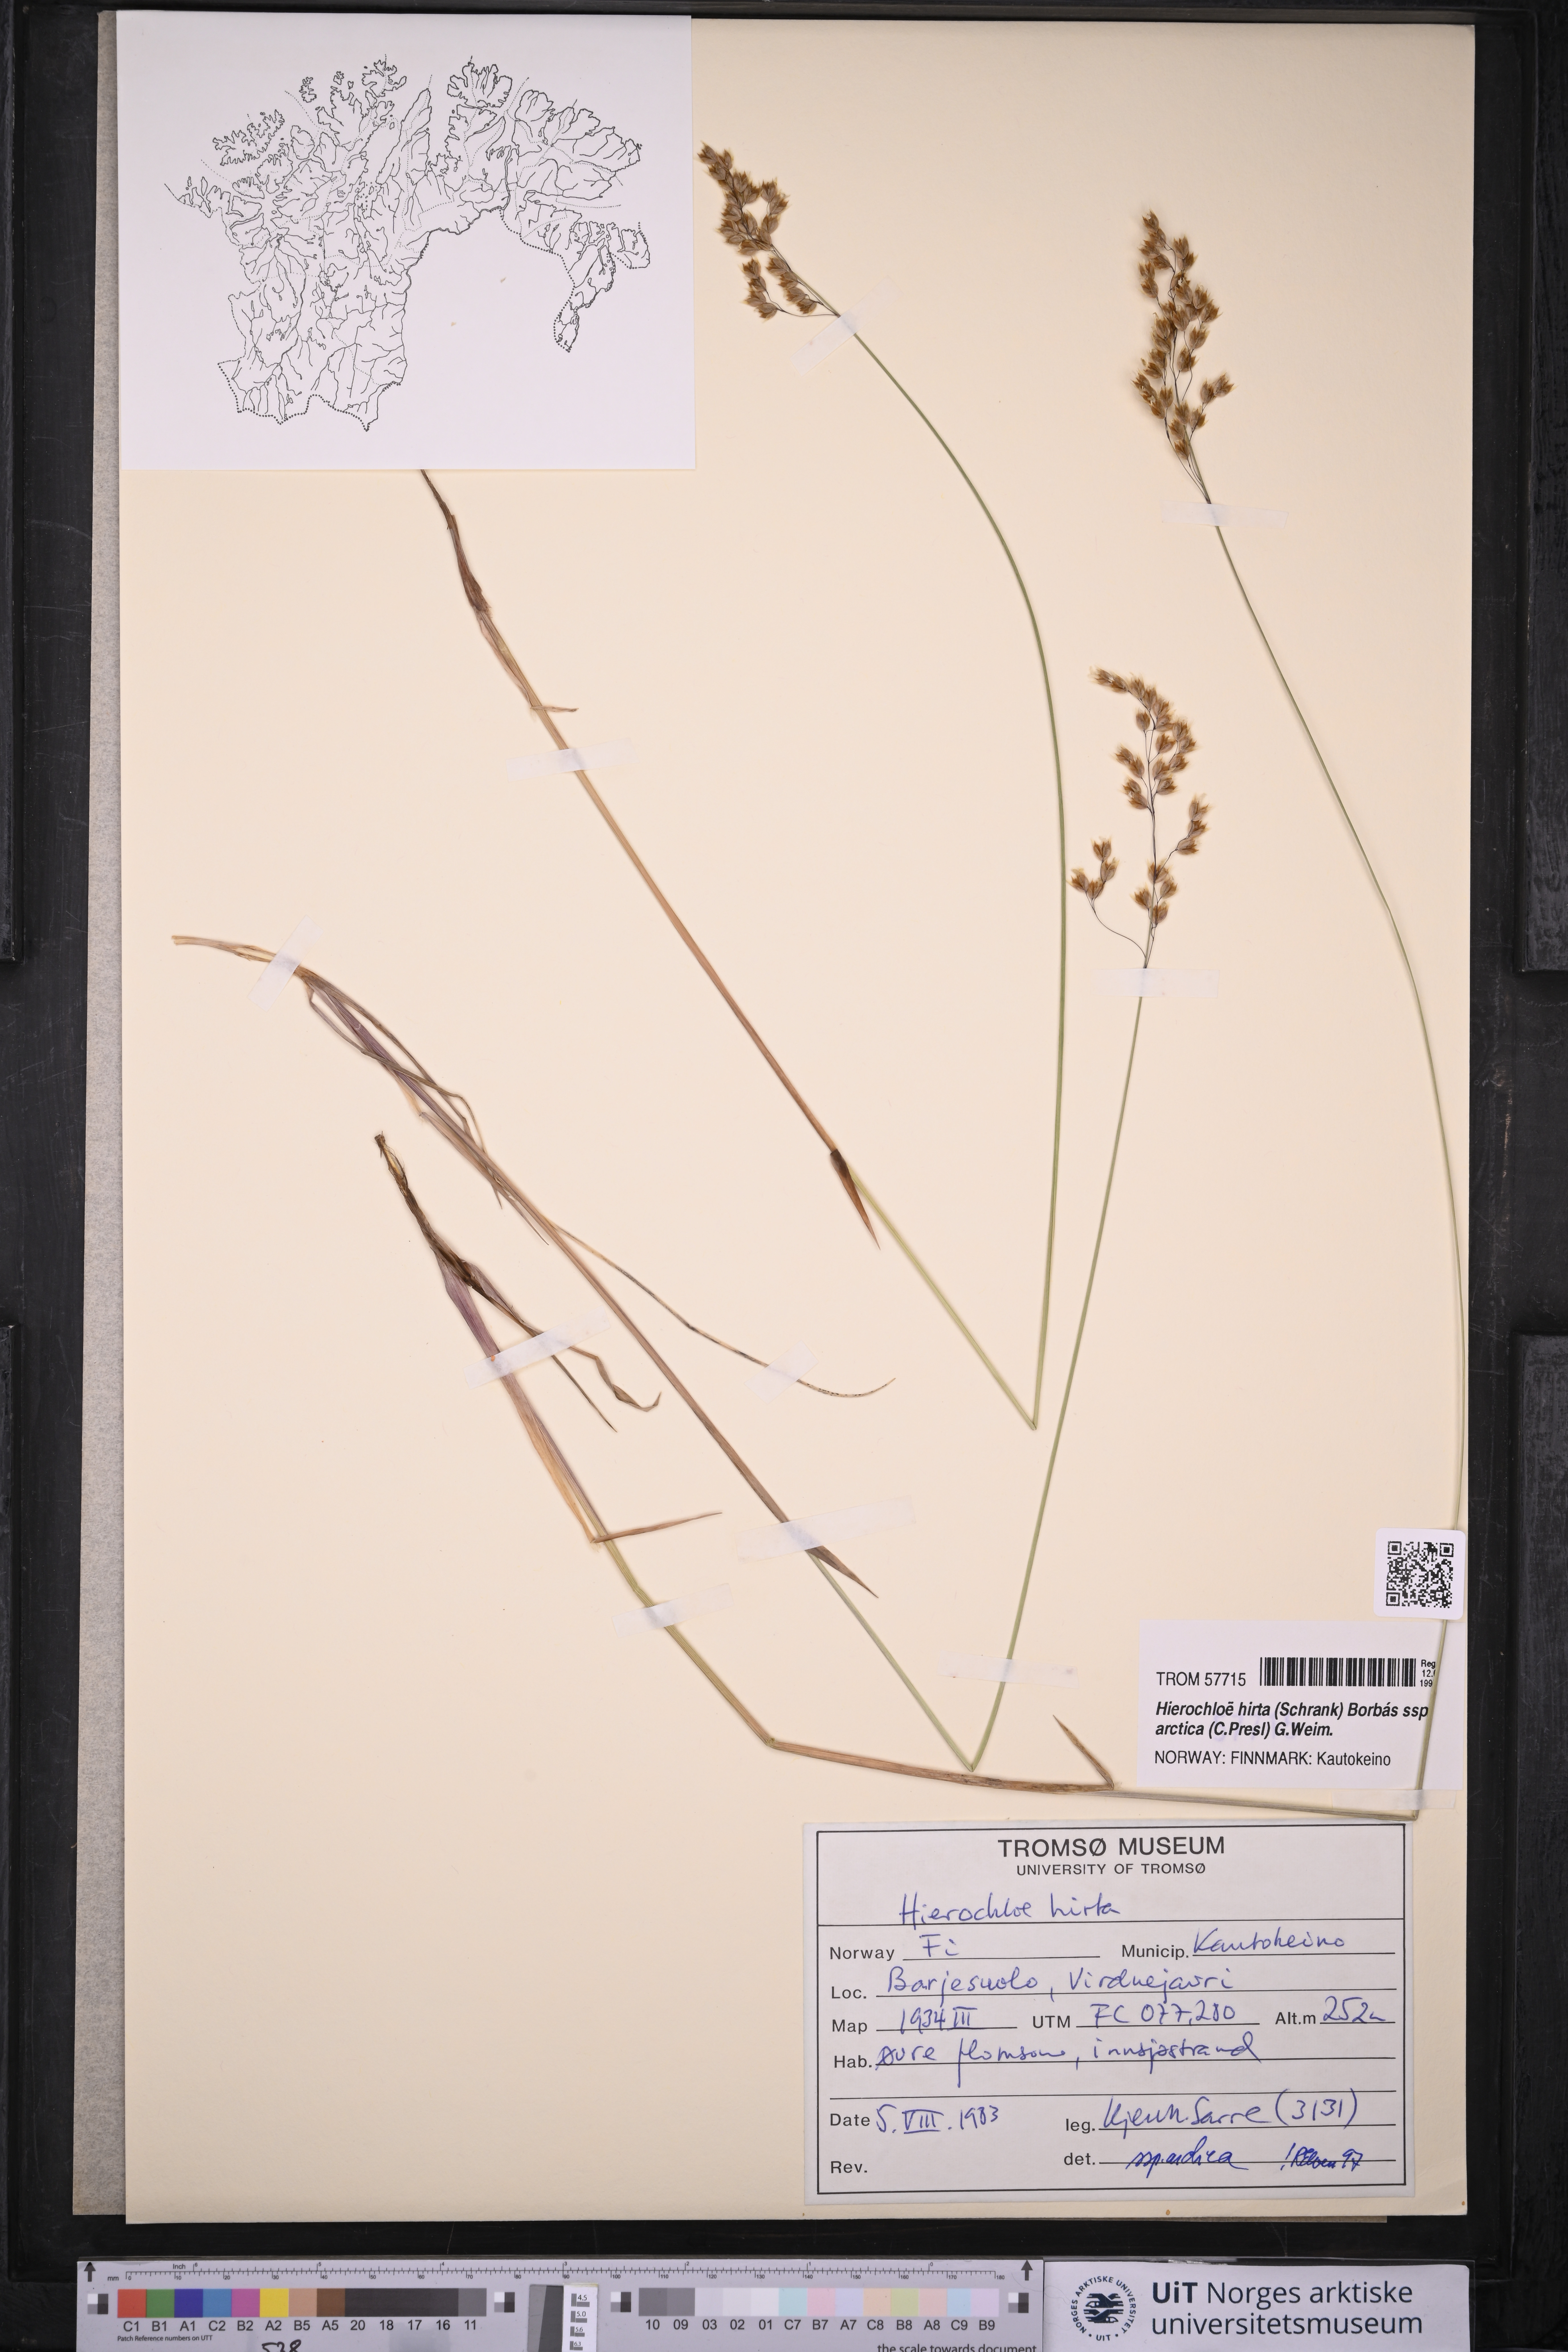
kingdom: Plantae
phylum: Tracheophyta
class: Liliopsida
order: Poales
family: Poaceae
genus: Anthoxanthum
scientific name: Anthoxanthum nitens
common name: Holy grass
